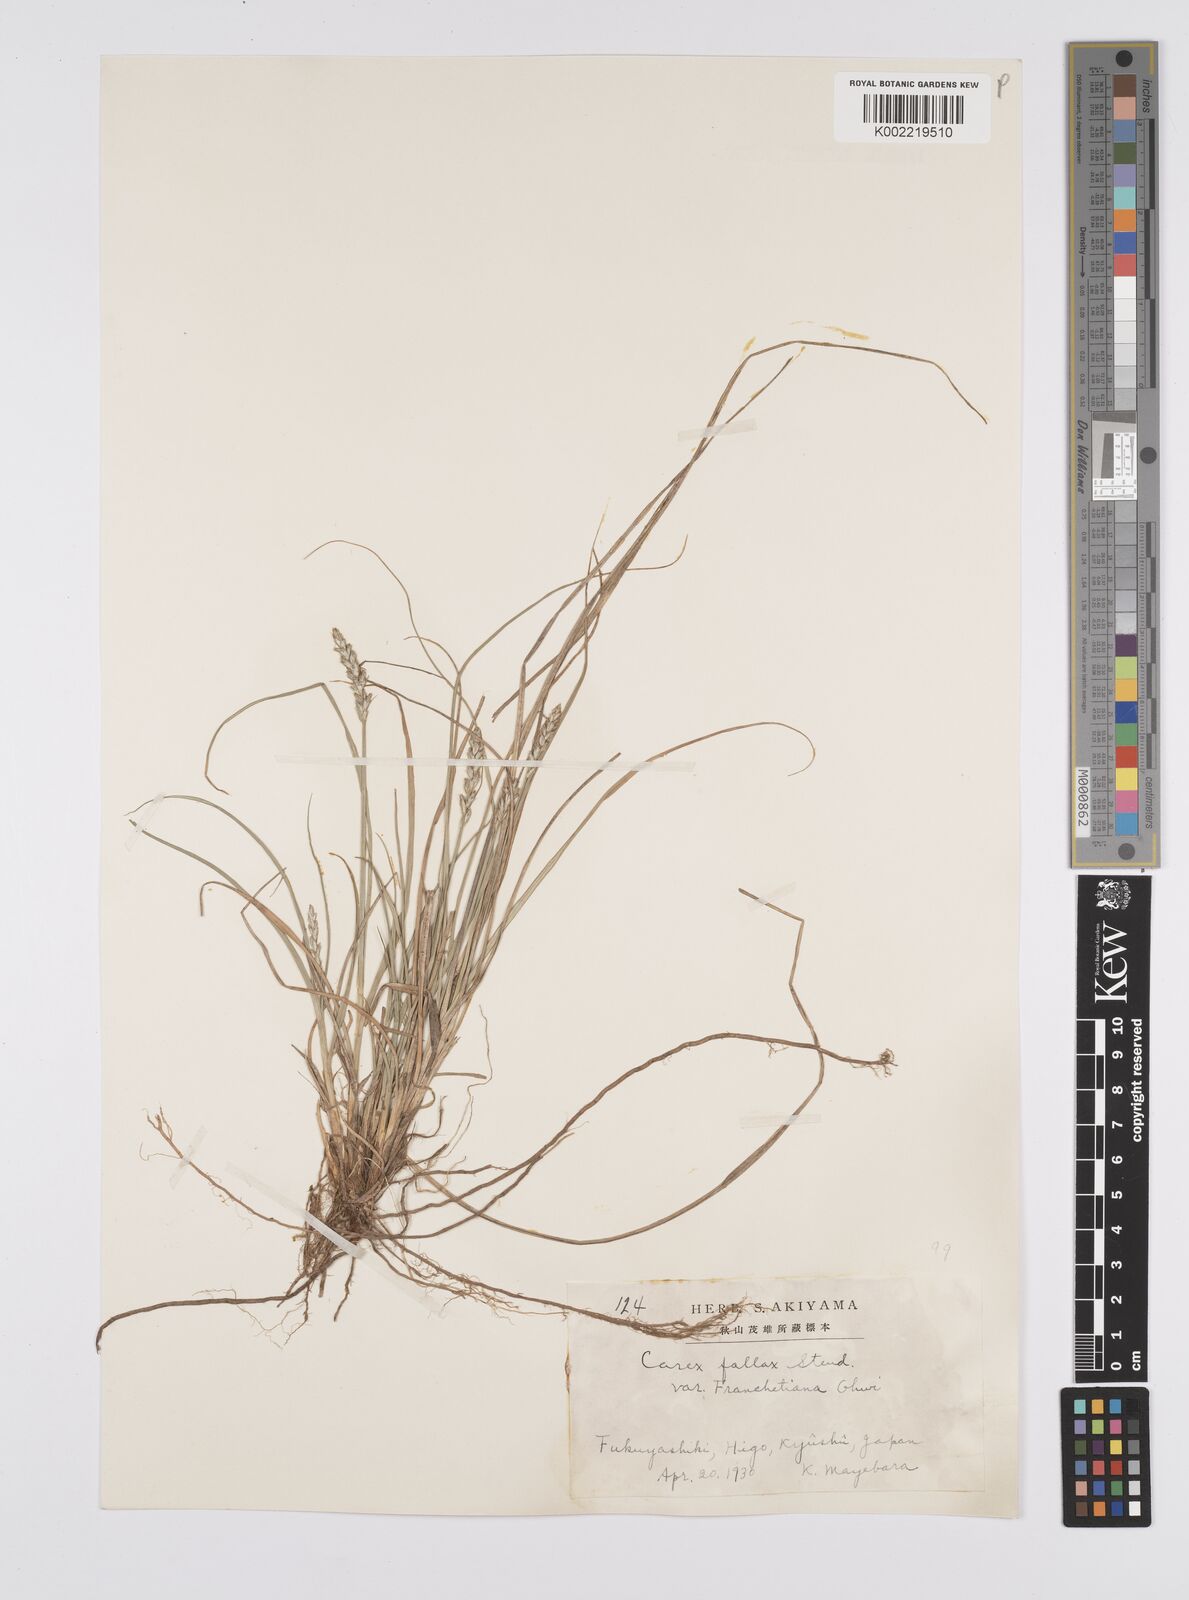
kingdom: Plantae
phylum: Tracheophyta
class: Liliopsida
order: Poales
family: Cyperaceae
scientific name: Cyperaceae
